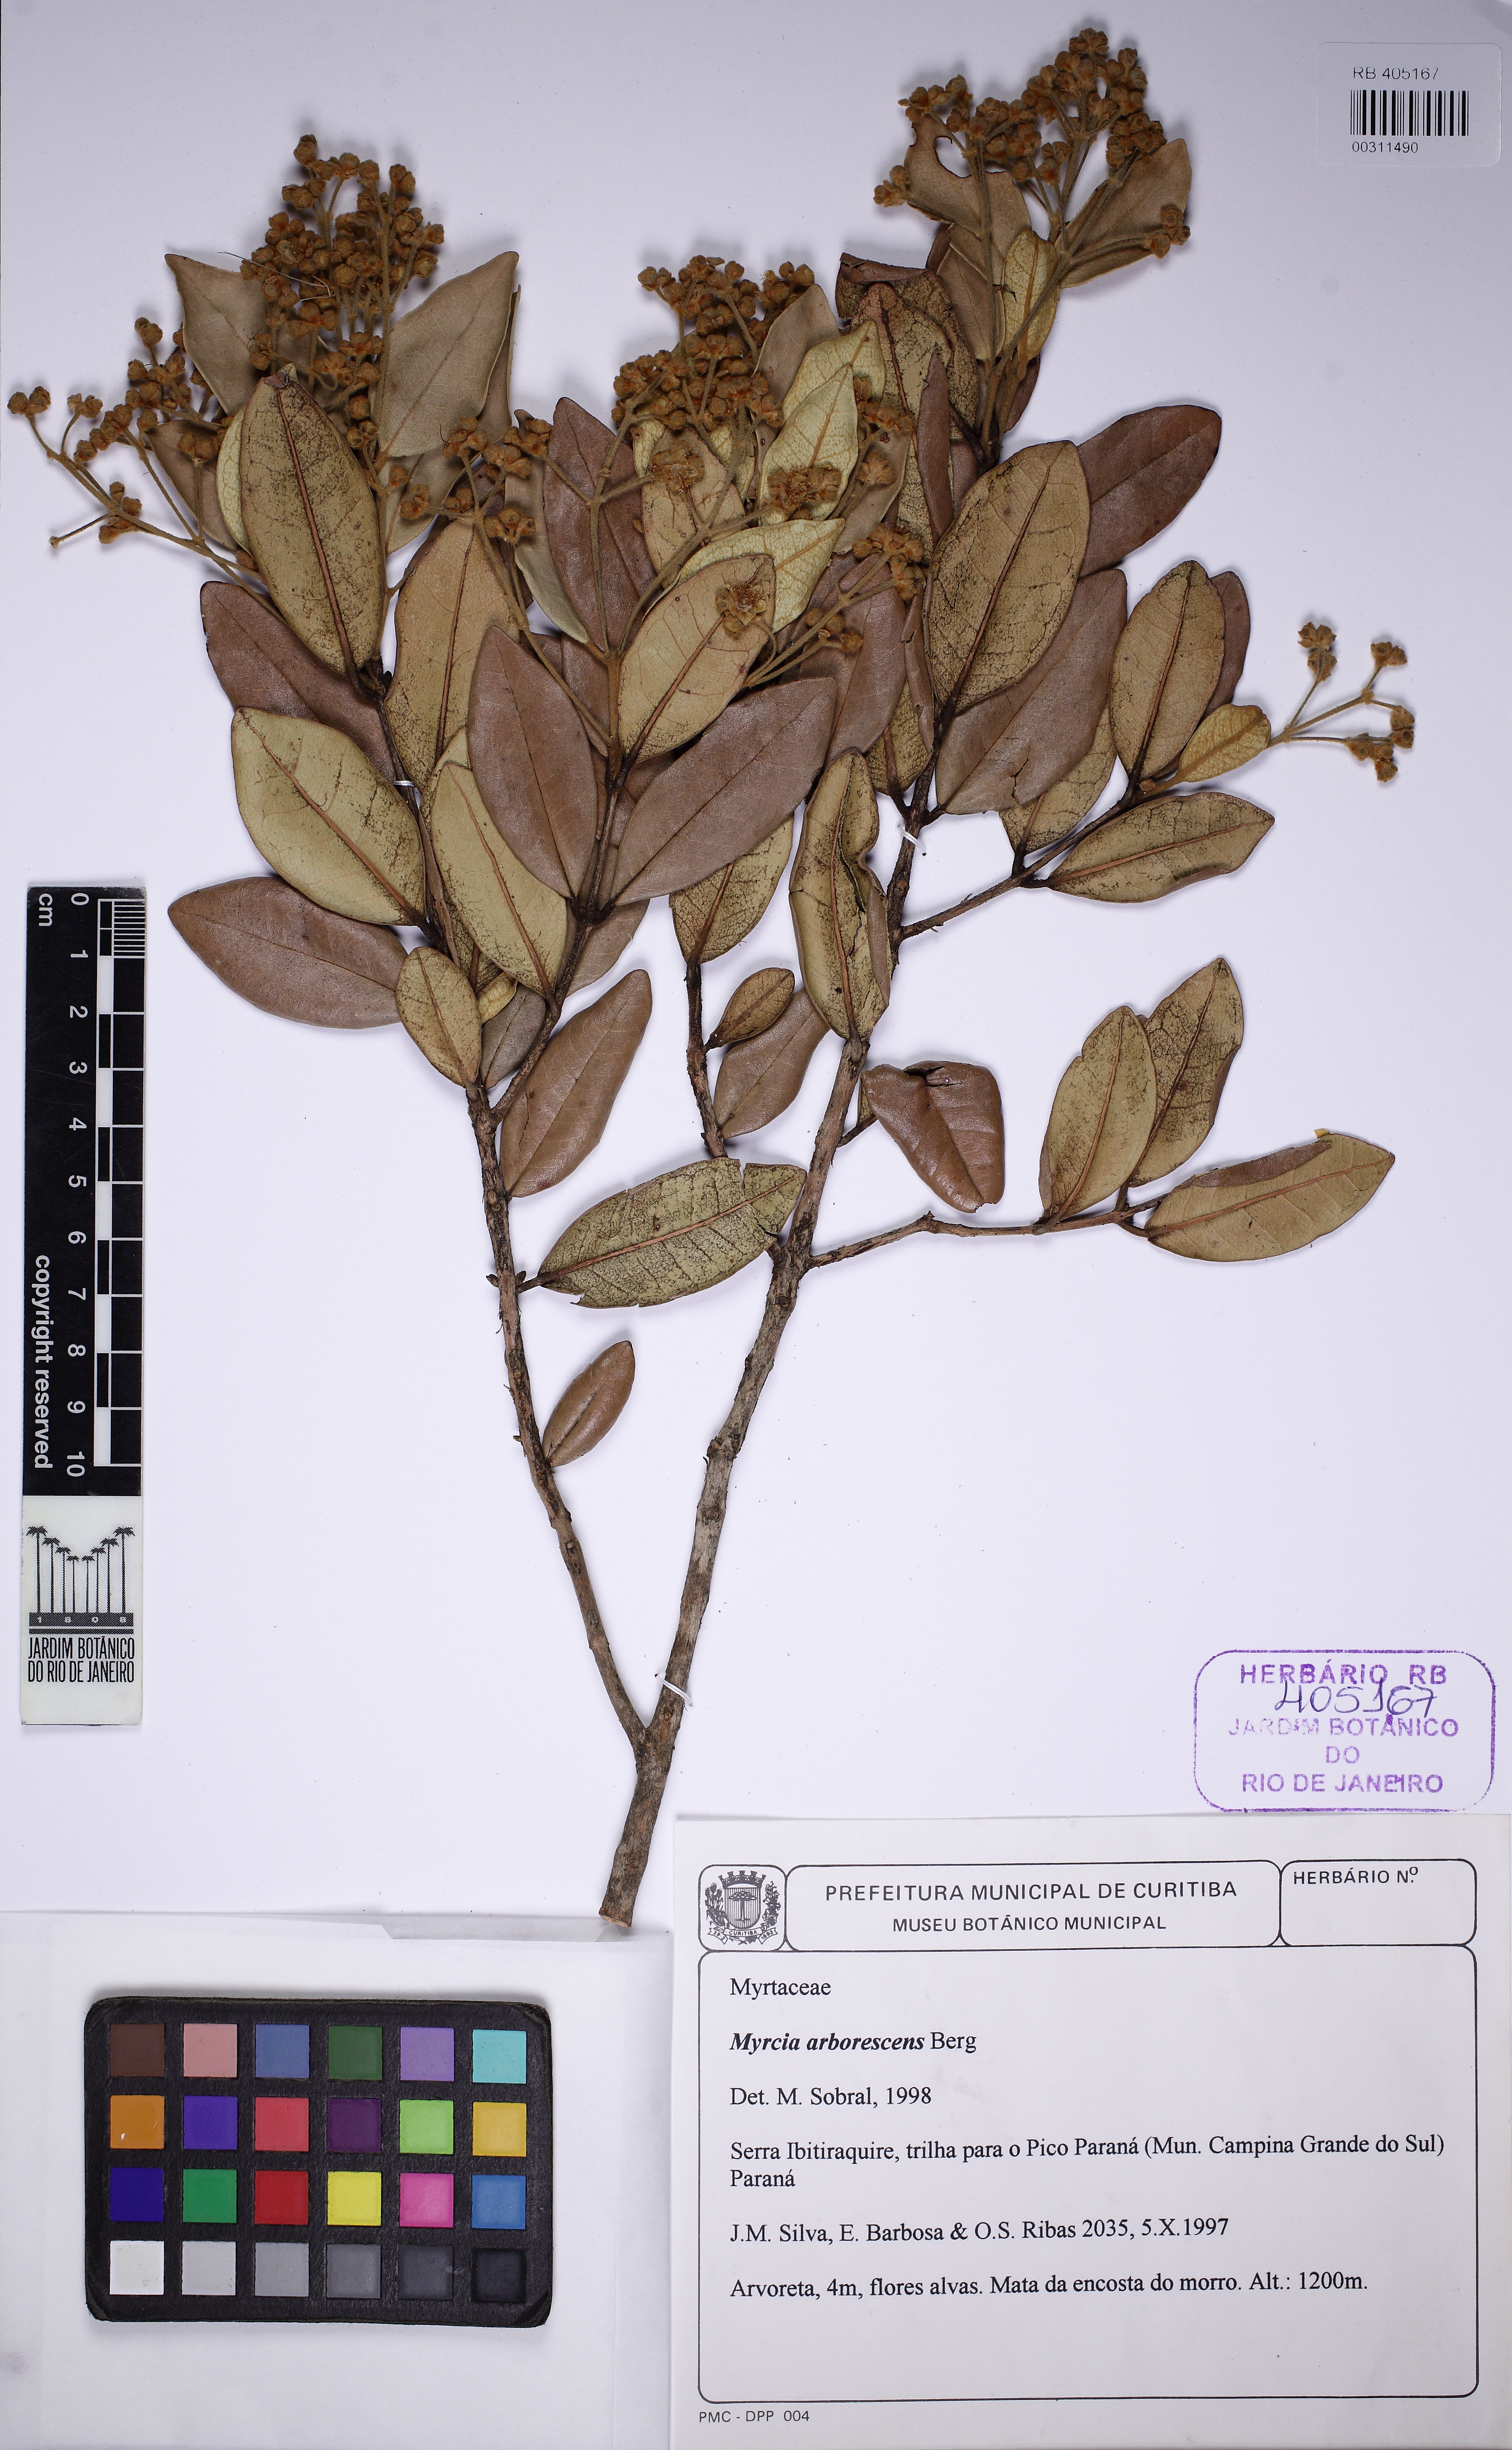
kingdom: Plantae
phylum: Tracheophyta
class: Magnoliopsida
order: Myrtales
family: Myrtaceae
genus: Myrcia
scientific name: Myrcia retorta
